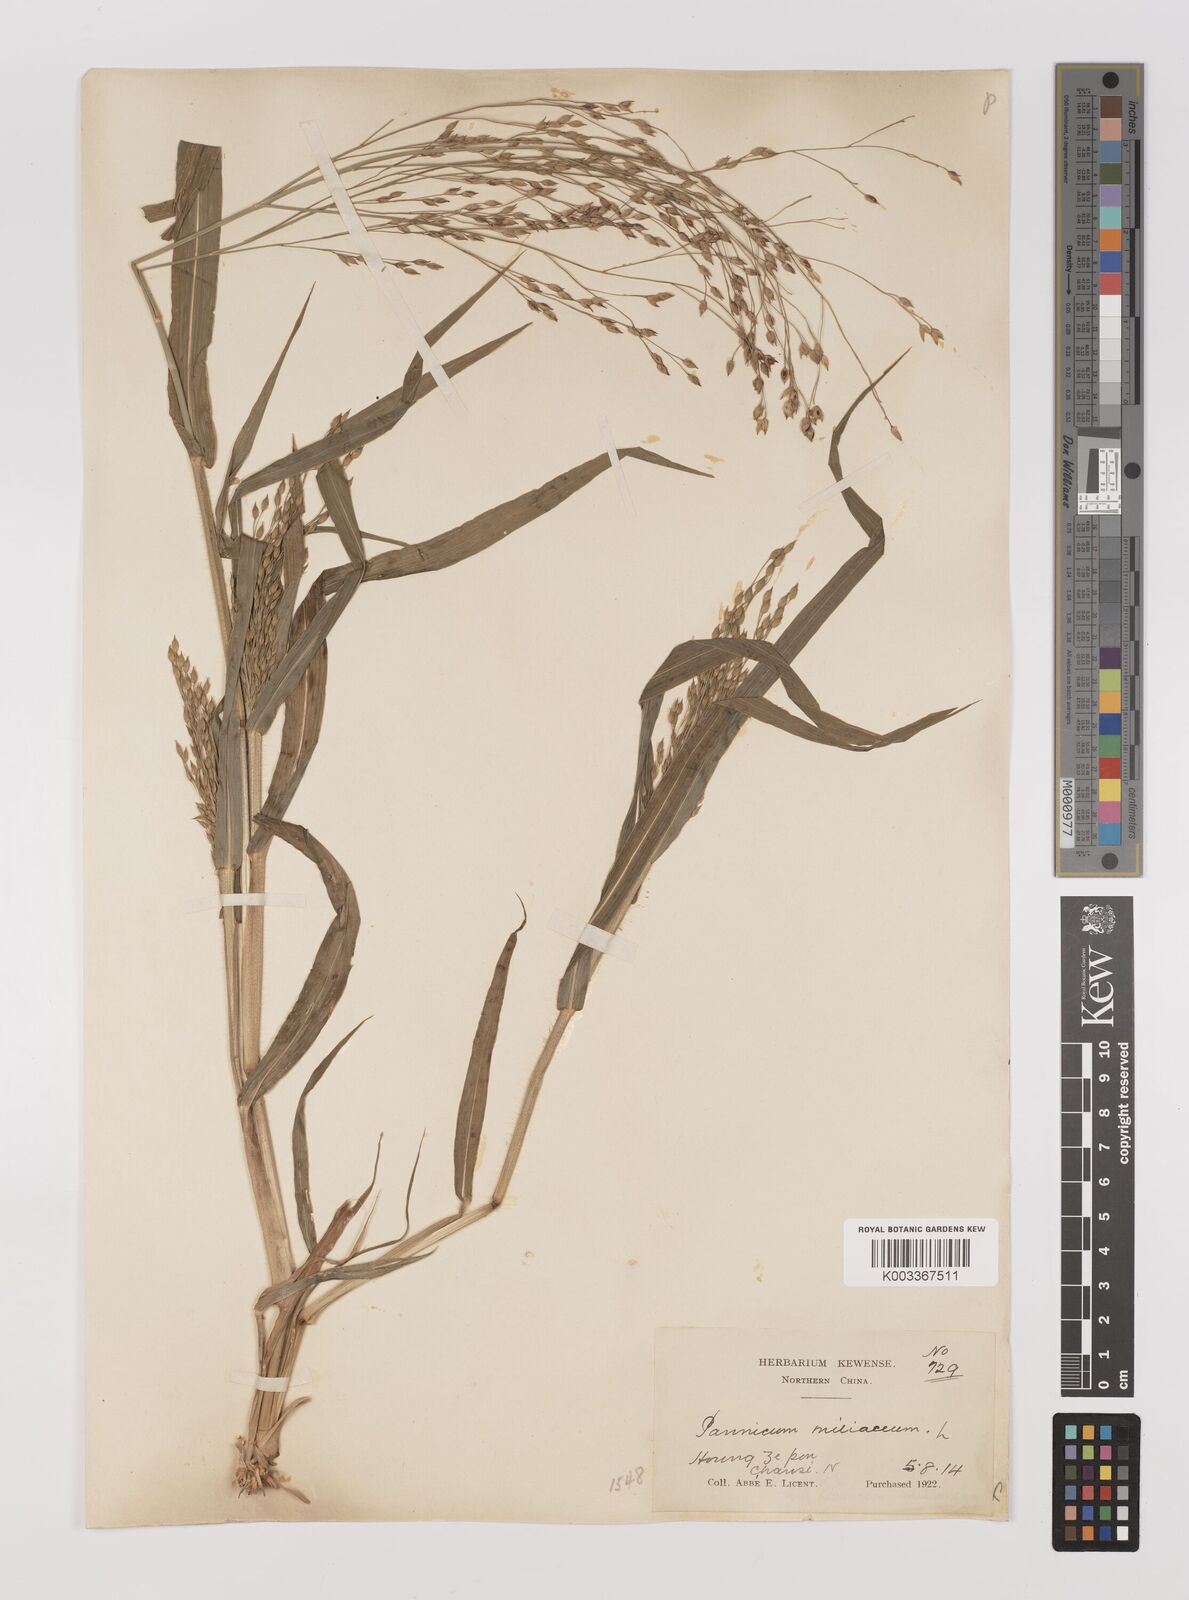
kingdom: Plantae
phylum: Tracheophyta
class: Liliopsida
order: Poales
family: Poaceae
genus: Panicum
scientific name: Panicum miliaceum
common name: Common millet
